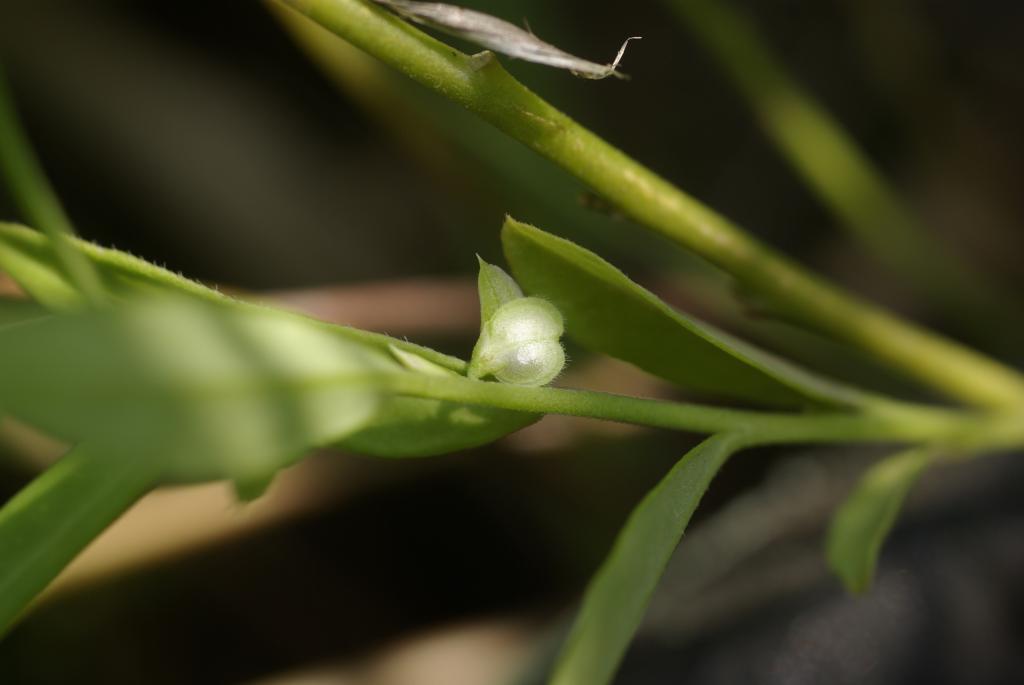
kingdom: Plantae
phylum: Tracheophyta
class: Magnoliopsida
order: Fabales
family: Polygalaceae
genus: Polygala
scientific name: Polygala glomerata
